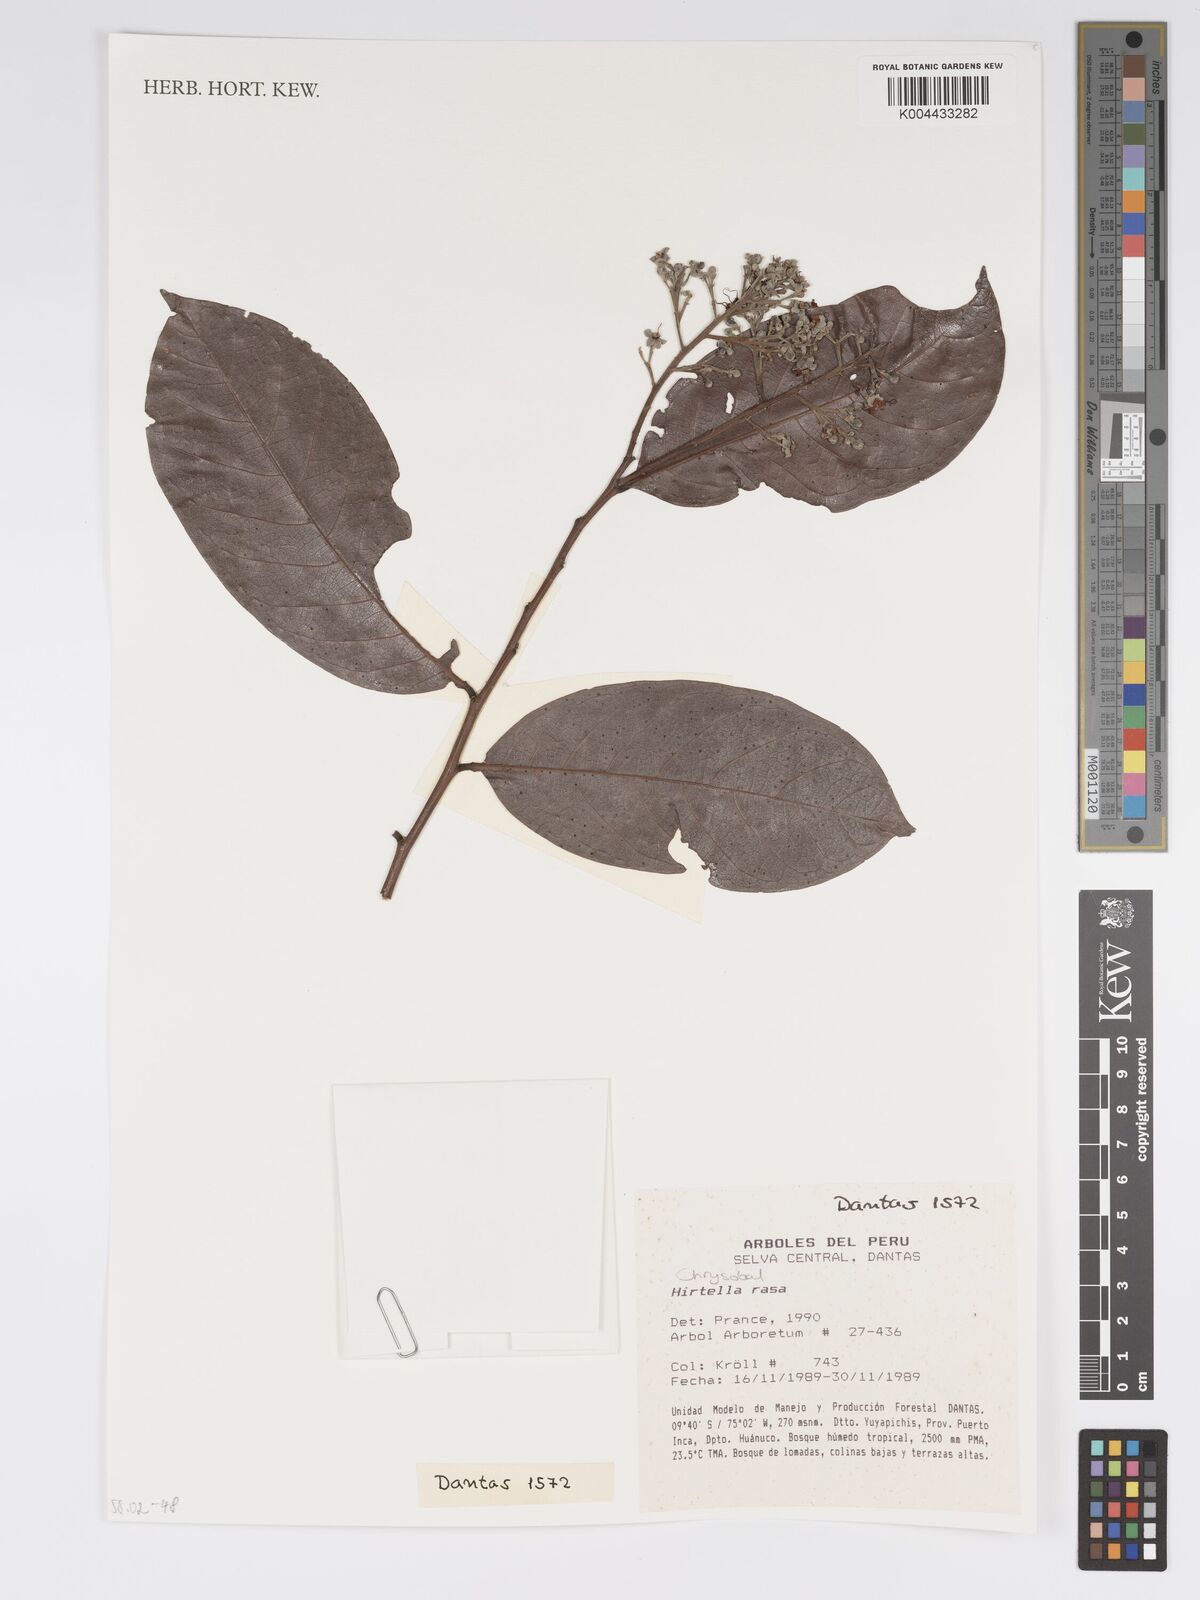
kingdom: Plantae
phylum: Tracheophyta
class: Magnoliopsida
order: Malpighiales
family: Chrysobalanaceae
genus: Hirtella
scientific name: Hirtella rasa
